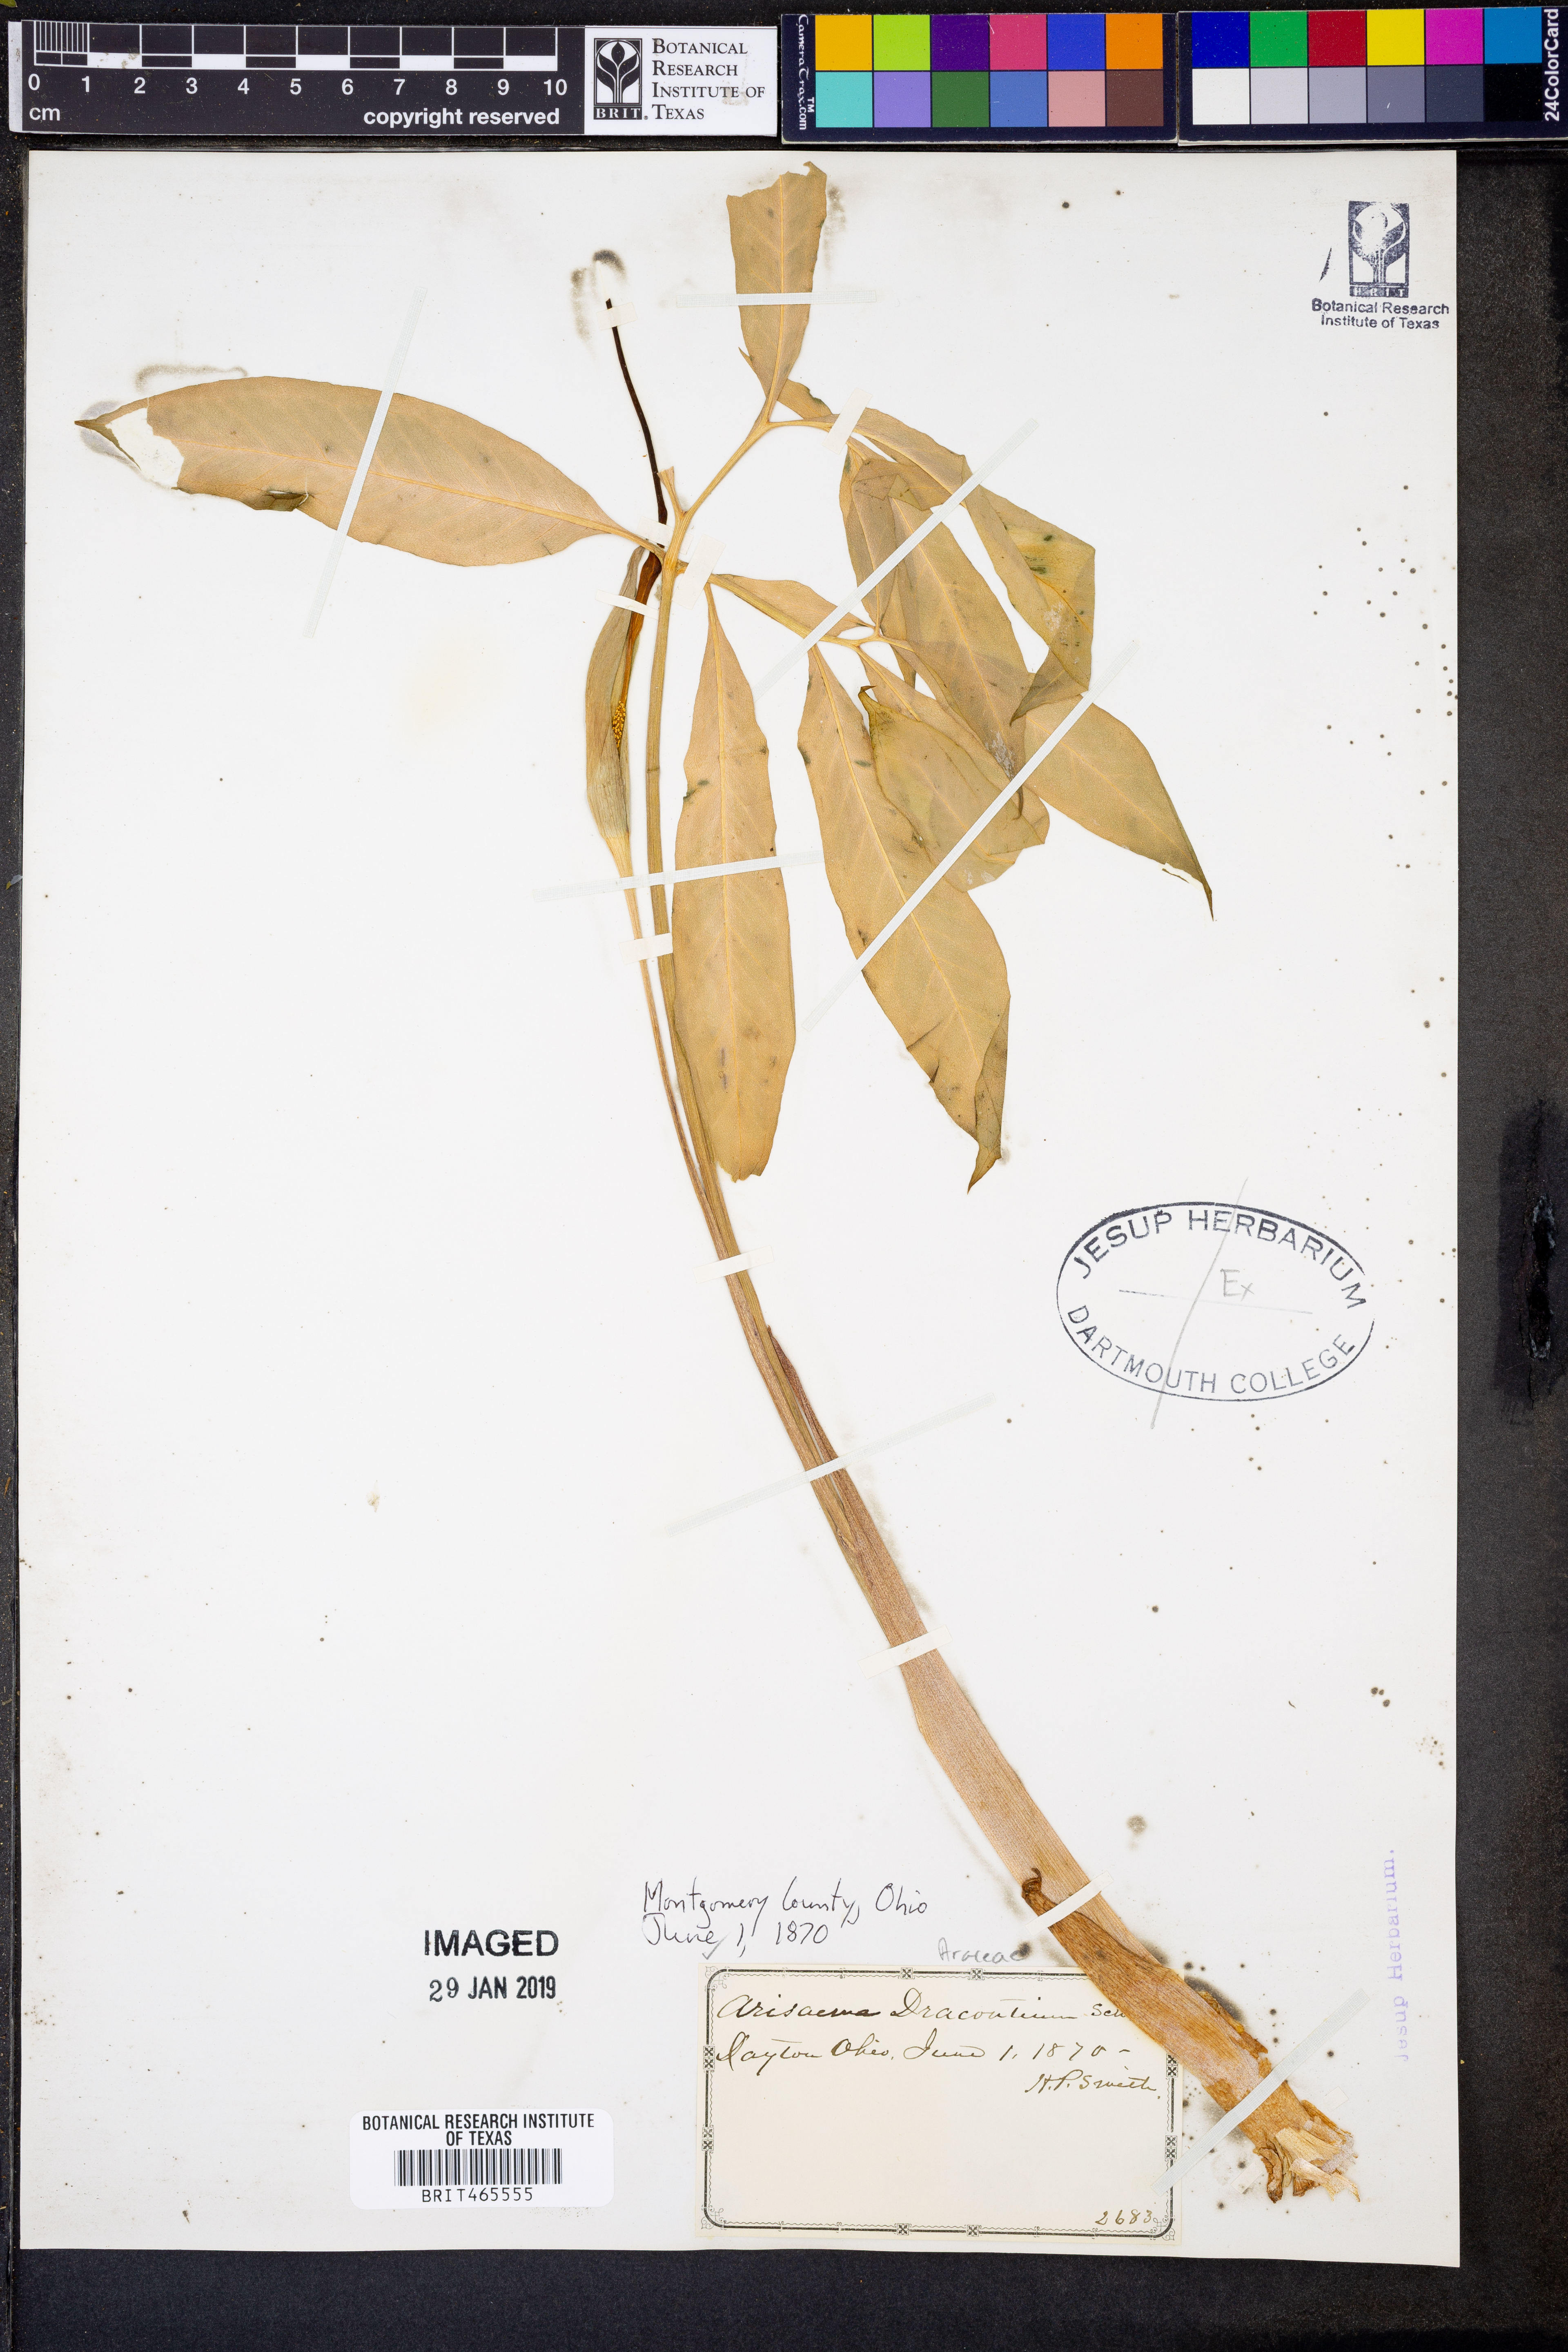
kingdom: Plantae
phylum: Tracheophyta
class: Liliopsida
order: Alismatales
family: Araceae
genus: Arisaema
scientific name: Arisaema dracontium
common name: Dragon-arum
